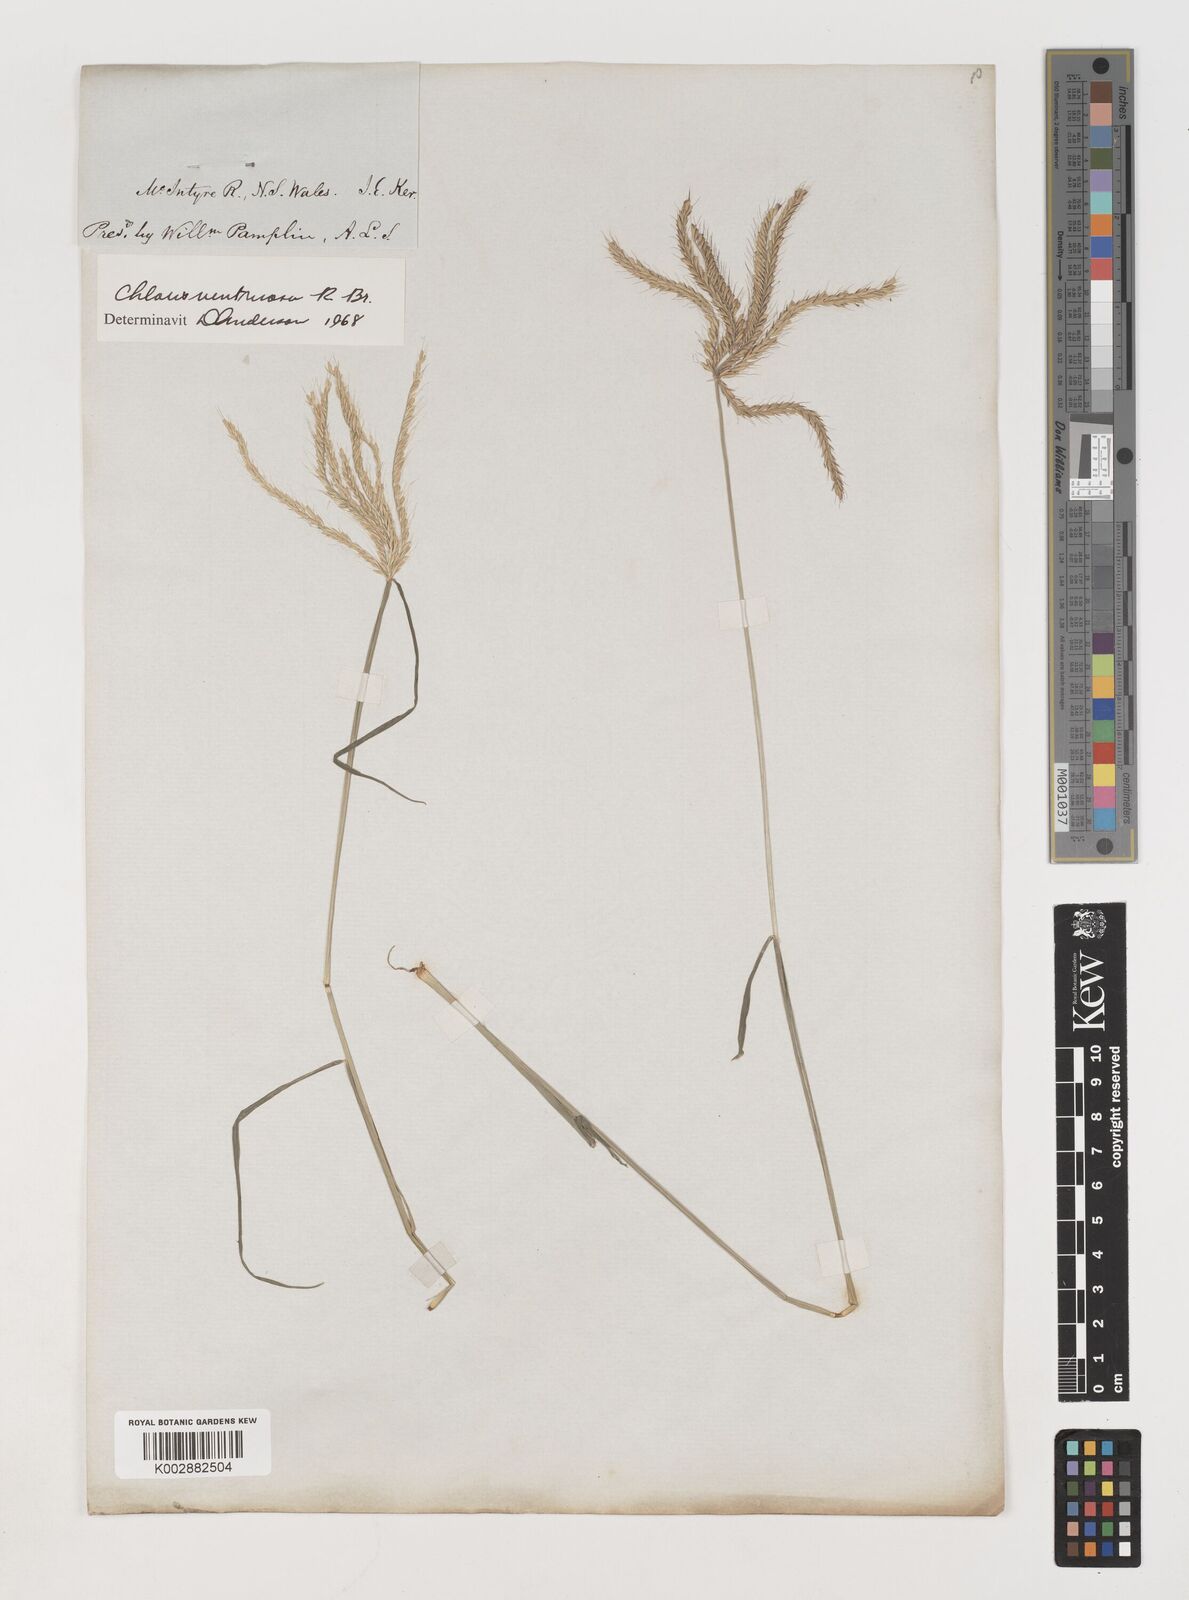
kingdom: Plantae
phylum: Tracheophyta
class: Liliopsida
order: Poales
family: Poaceae
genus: Chloris
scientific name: Chloris ventricosa
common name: Australian windmill grass
